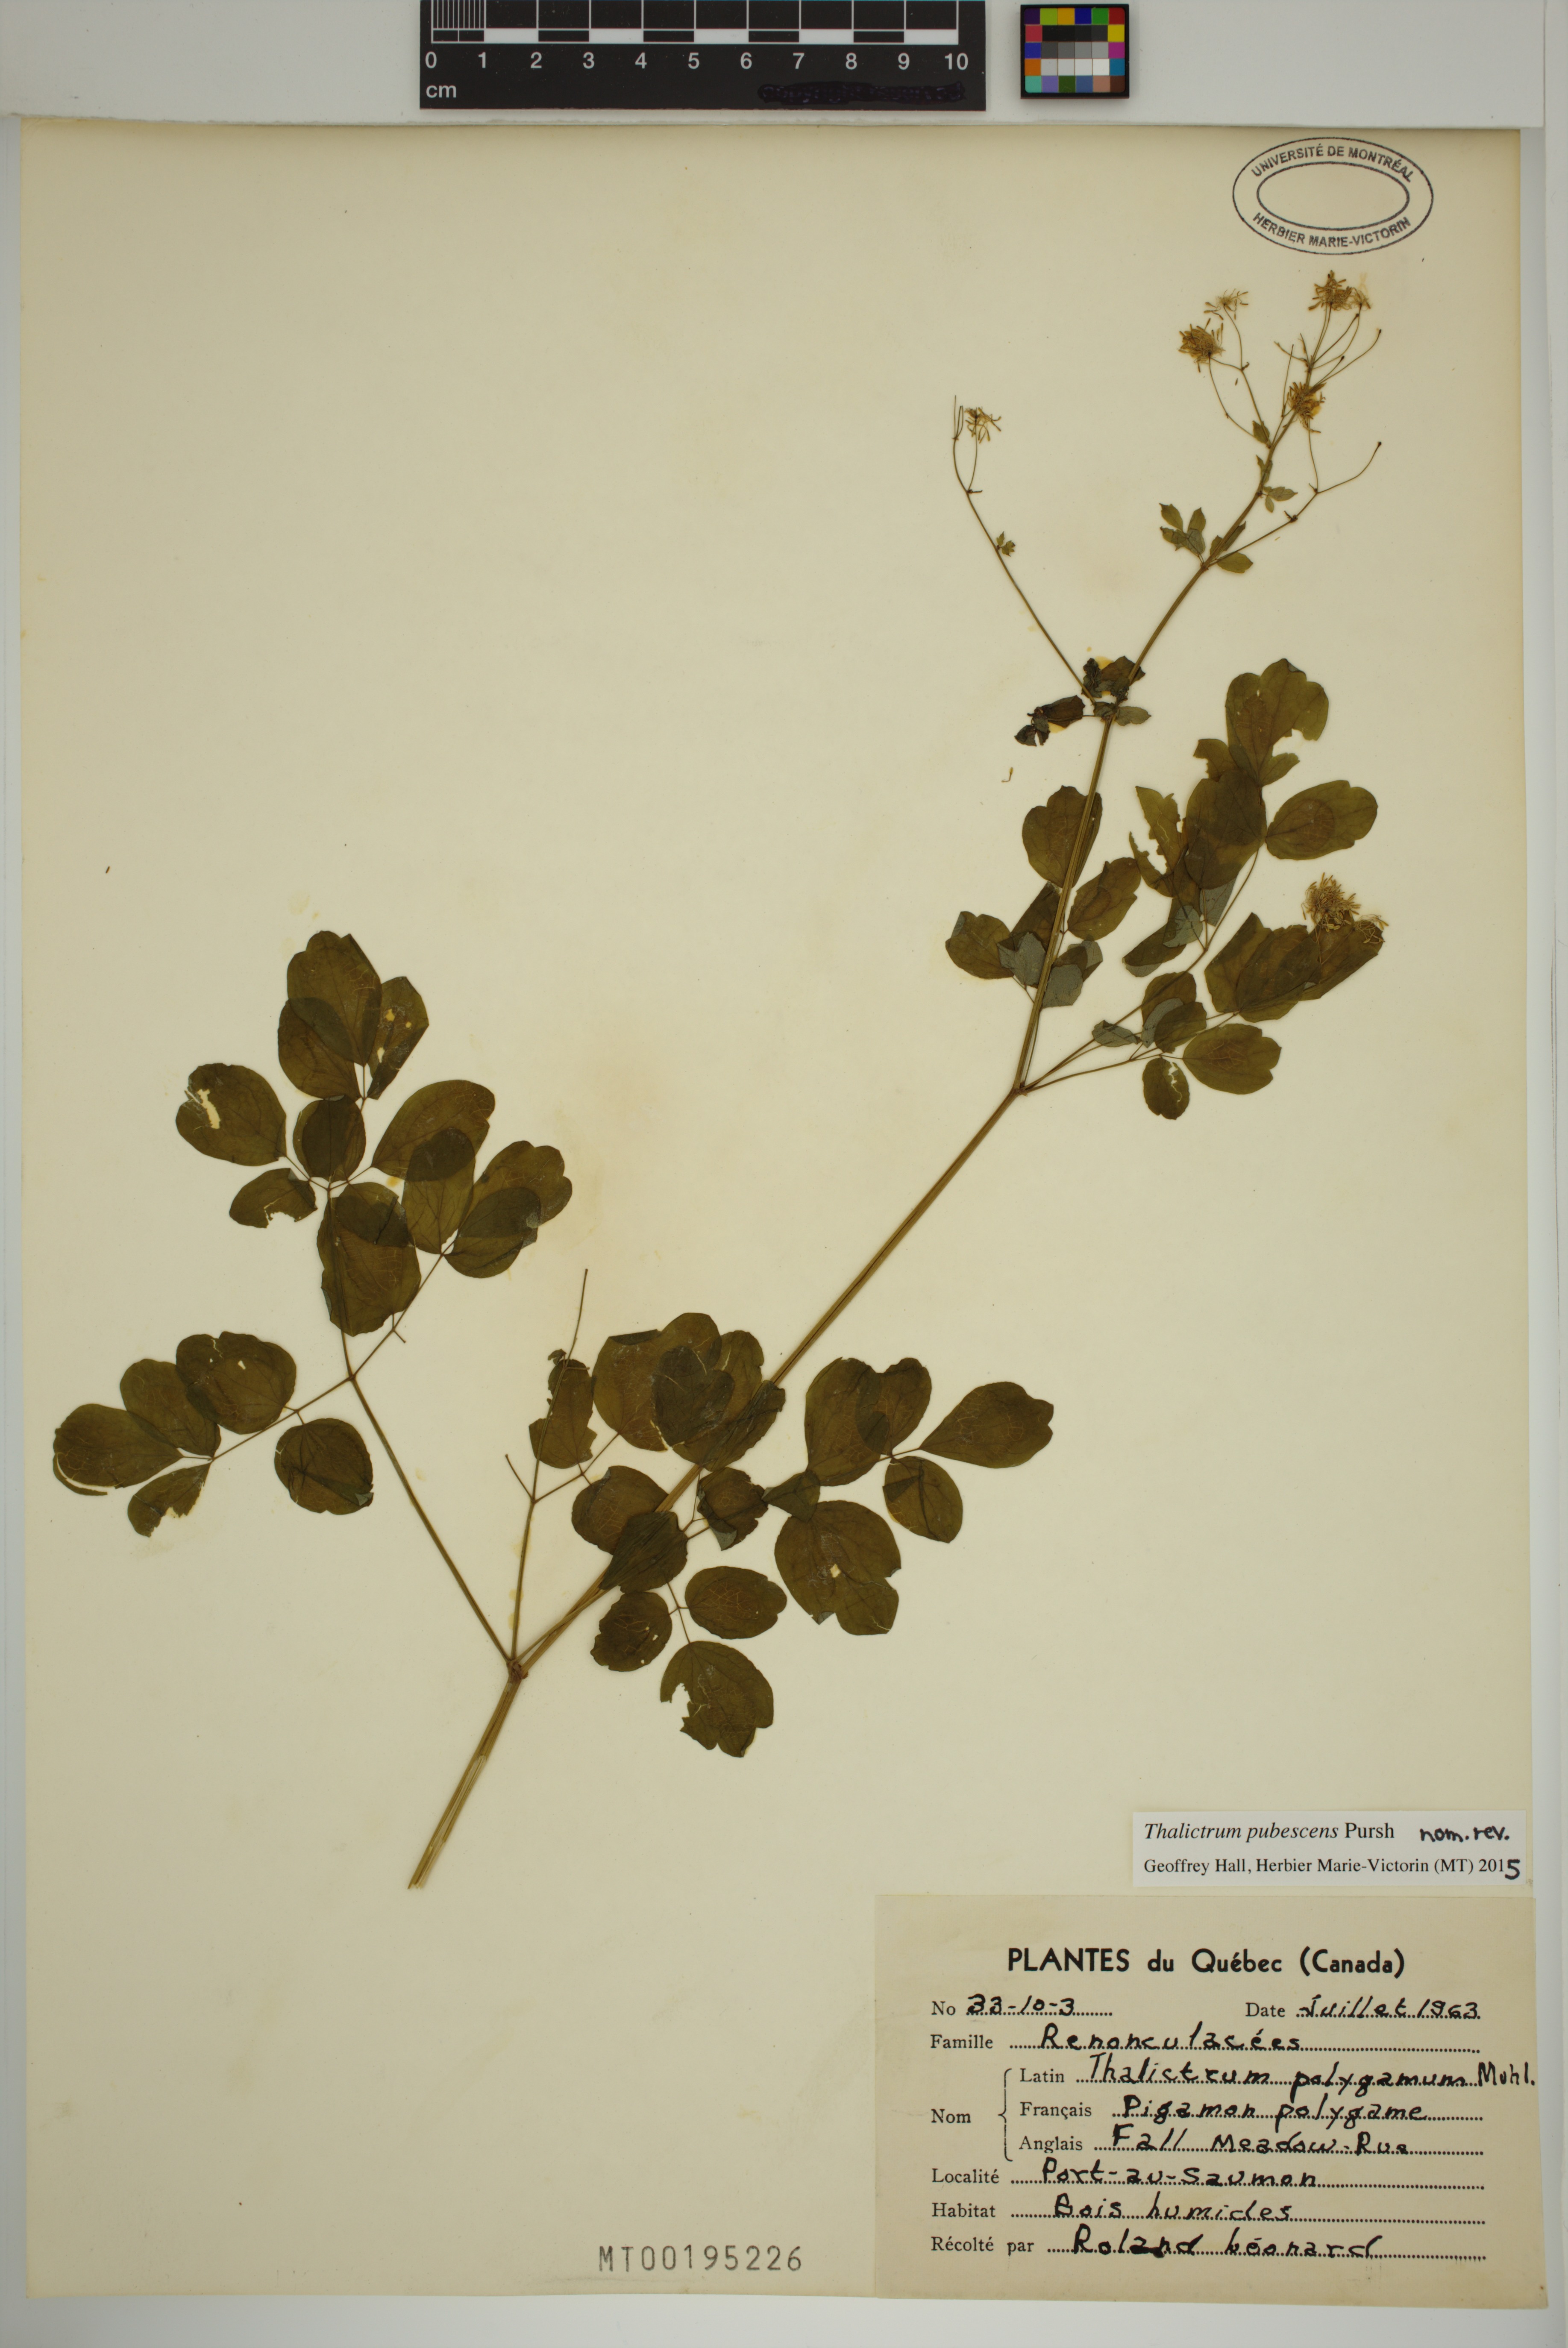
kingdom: Plantae
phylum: Tracheophyta
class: Magnoliopsida
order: Ranunculales
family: Ranunculaceae
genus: Thalictrum
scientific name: Thalictrum pubescens
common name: King-of-the-meadow
